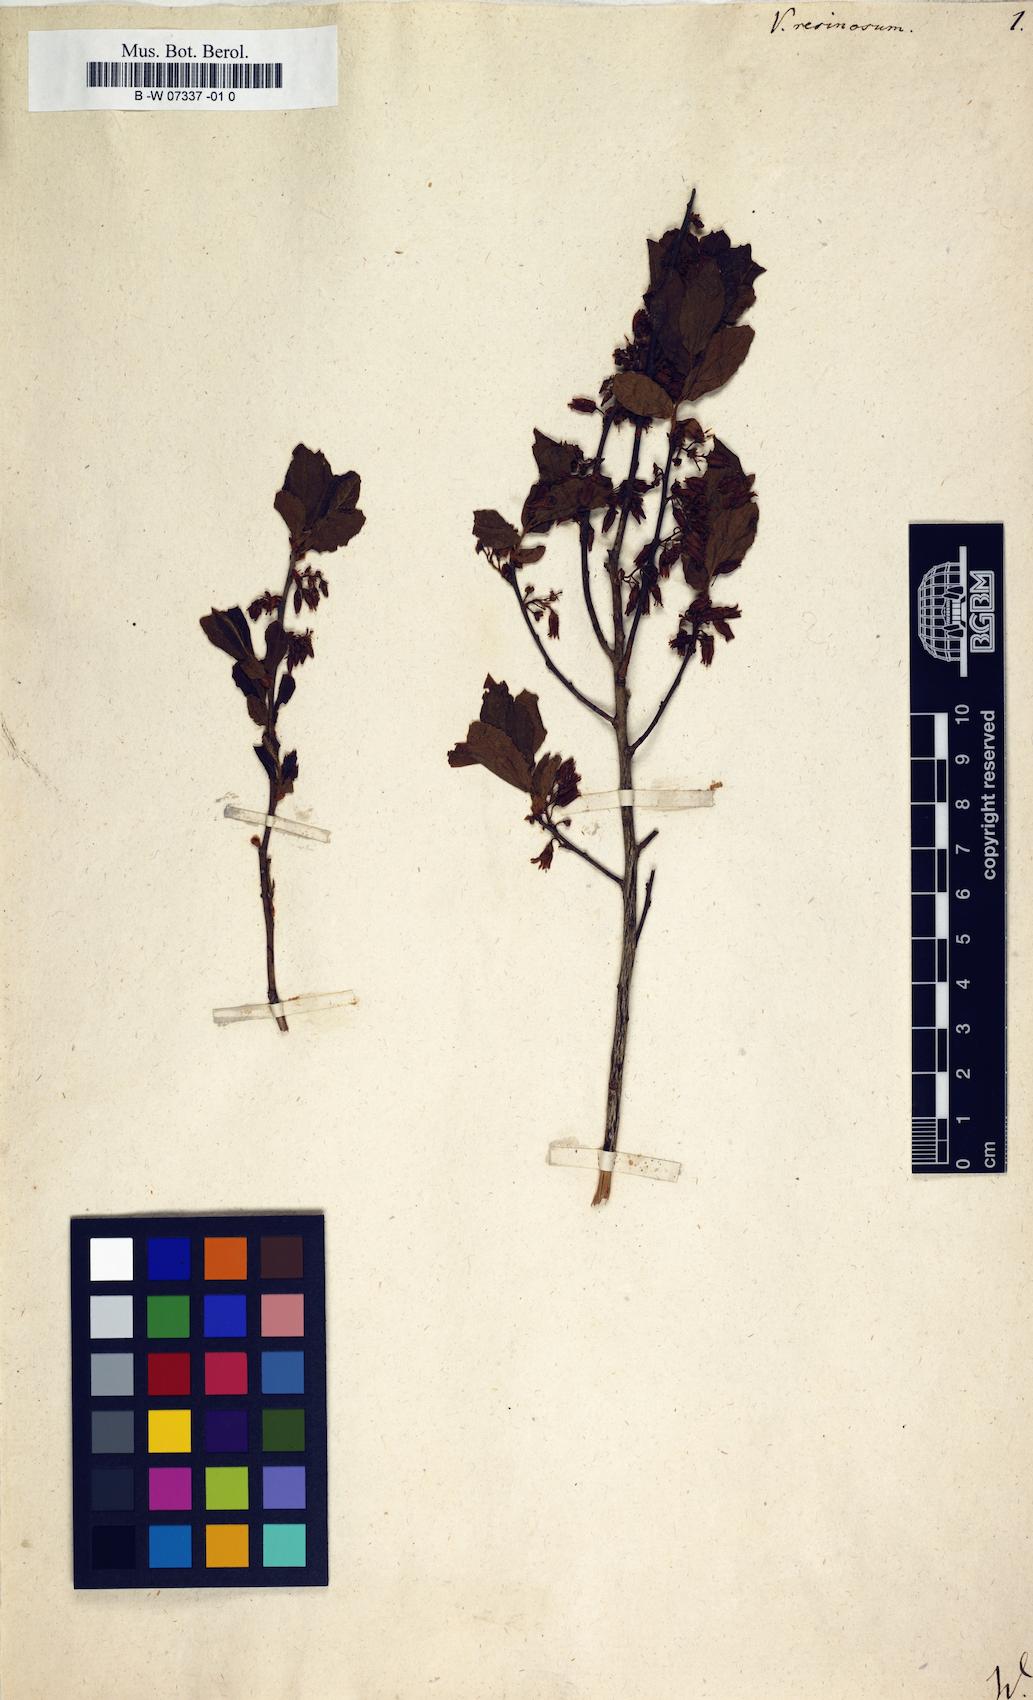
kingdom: Plantae
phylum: Tracheophyta
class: Magnoliopsida
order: Ericales
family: Ericaceae
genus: Gaylussacia
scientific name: Gaylussacia baccata
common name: Black huckleberry
